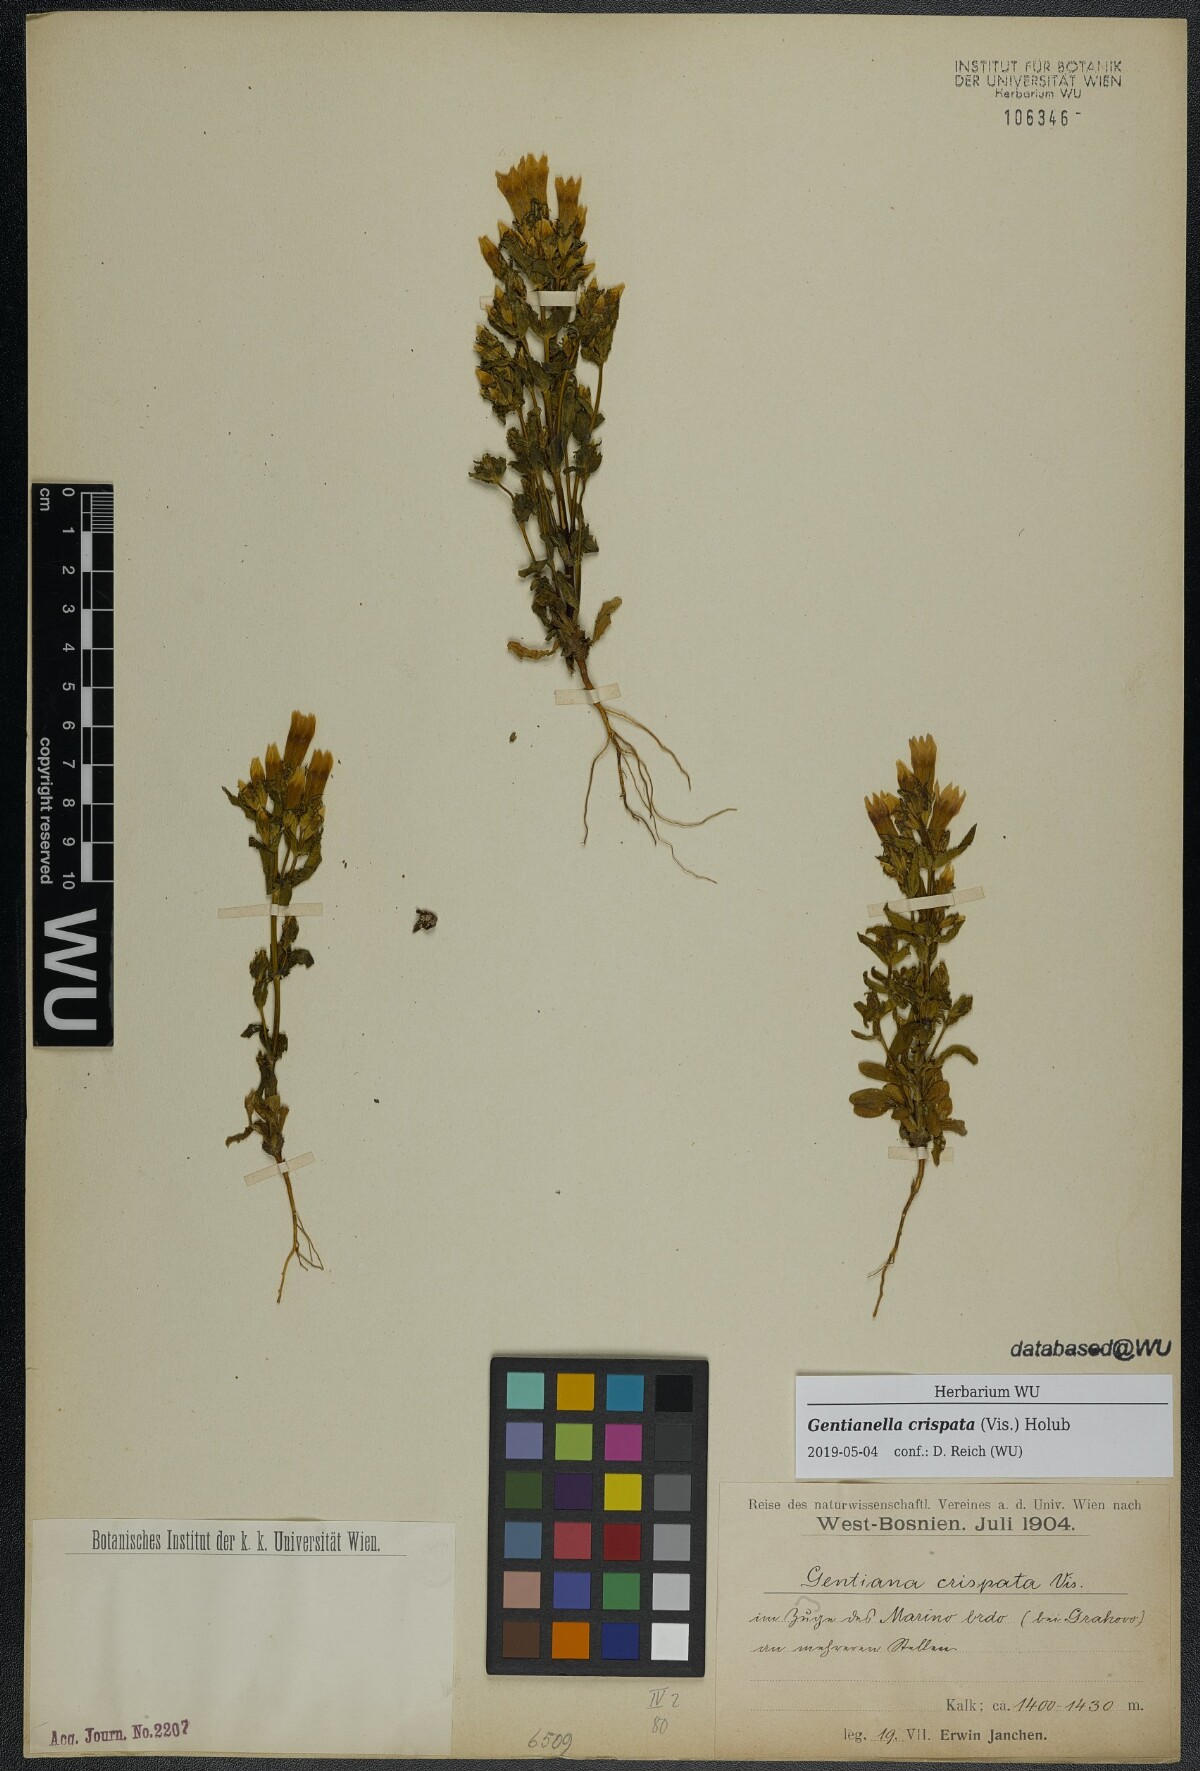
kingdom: Plantae
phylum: Tracheophyta
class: Magnoliopsida
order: Gentianales
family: Gentianaceae
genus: Gentianella
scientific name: Gentianella crispata
